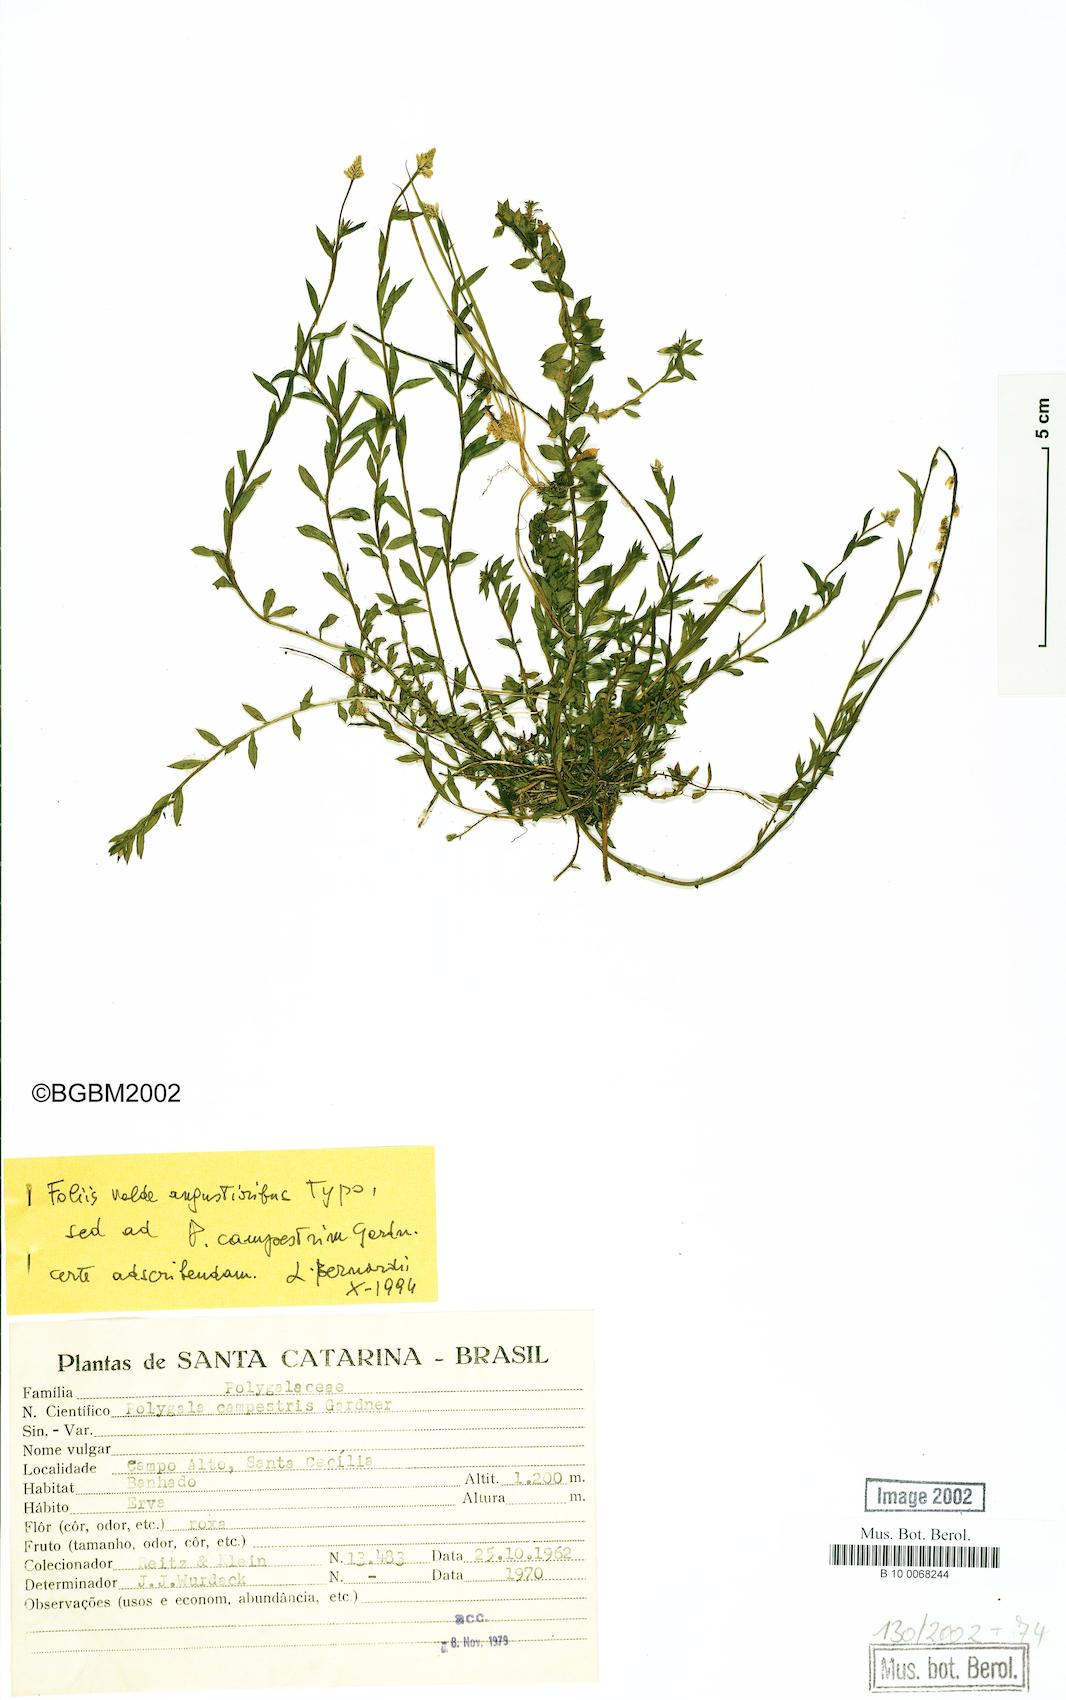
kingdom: Plantae
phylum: Tracheophyta
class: Magnoliopsida
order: Fabales
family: Polygalaceae
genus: Polygala
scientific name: Polygala campestris
